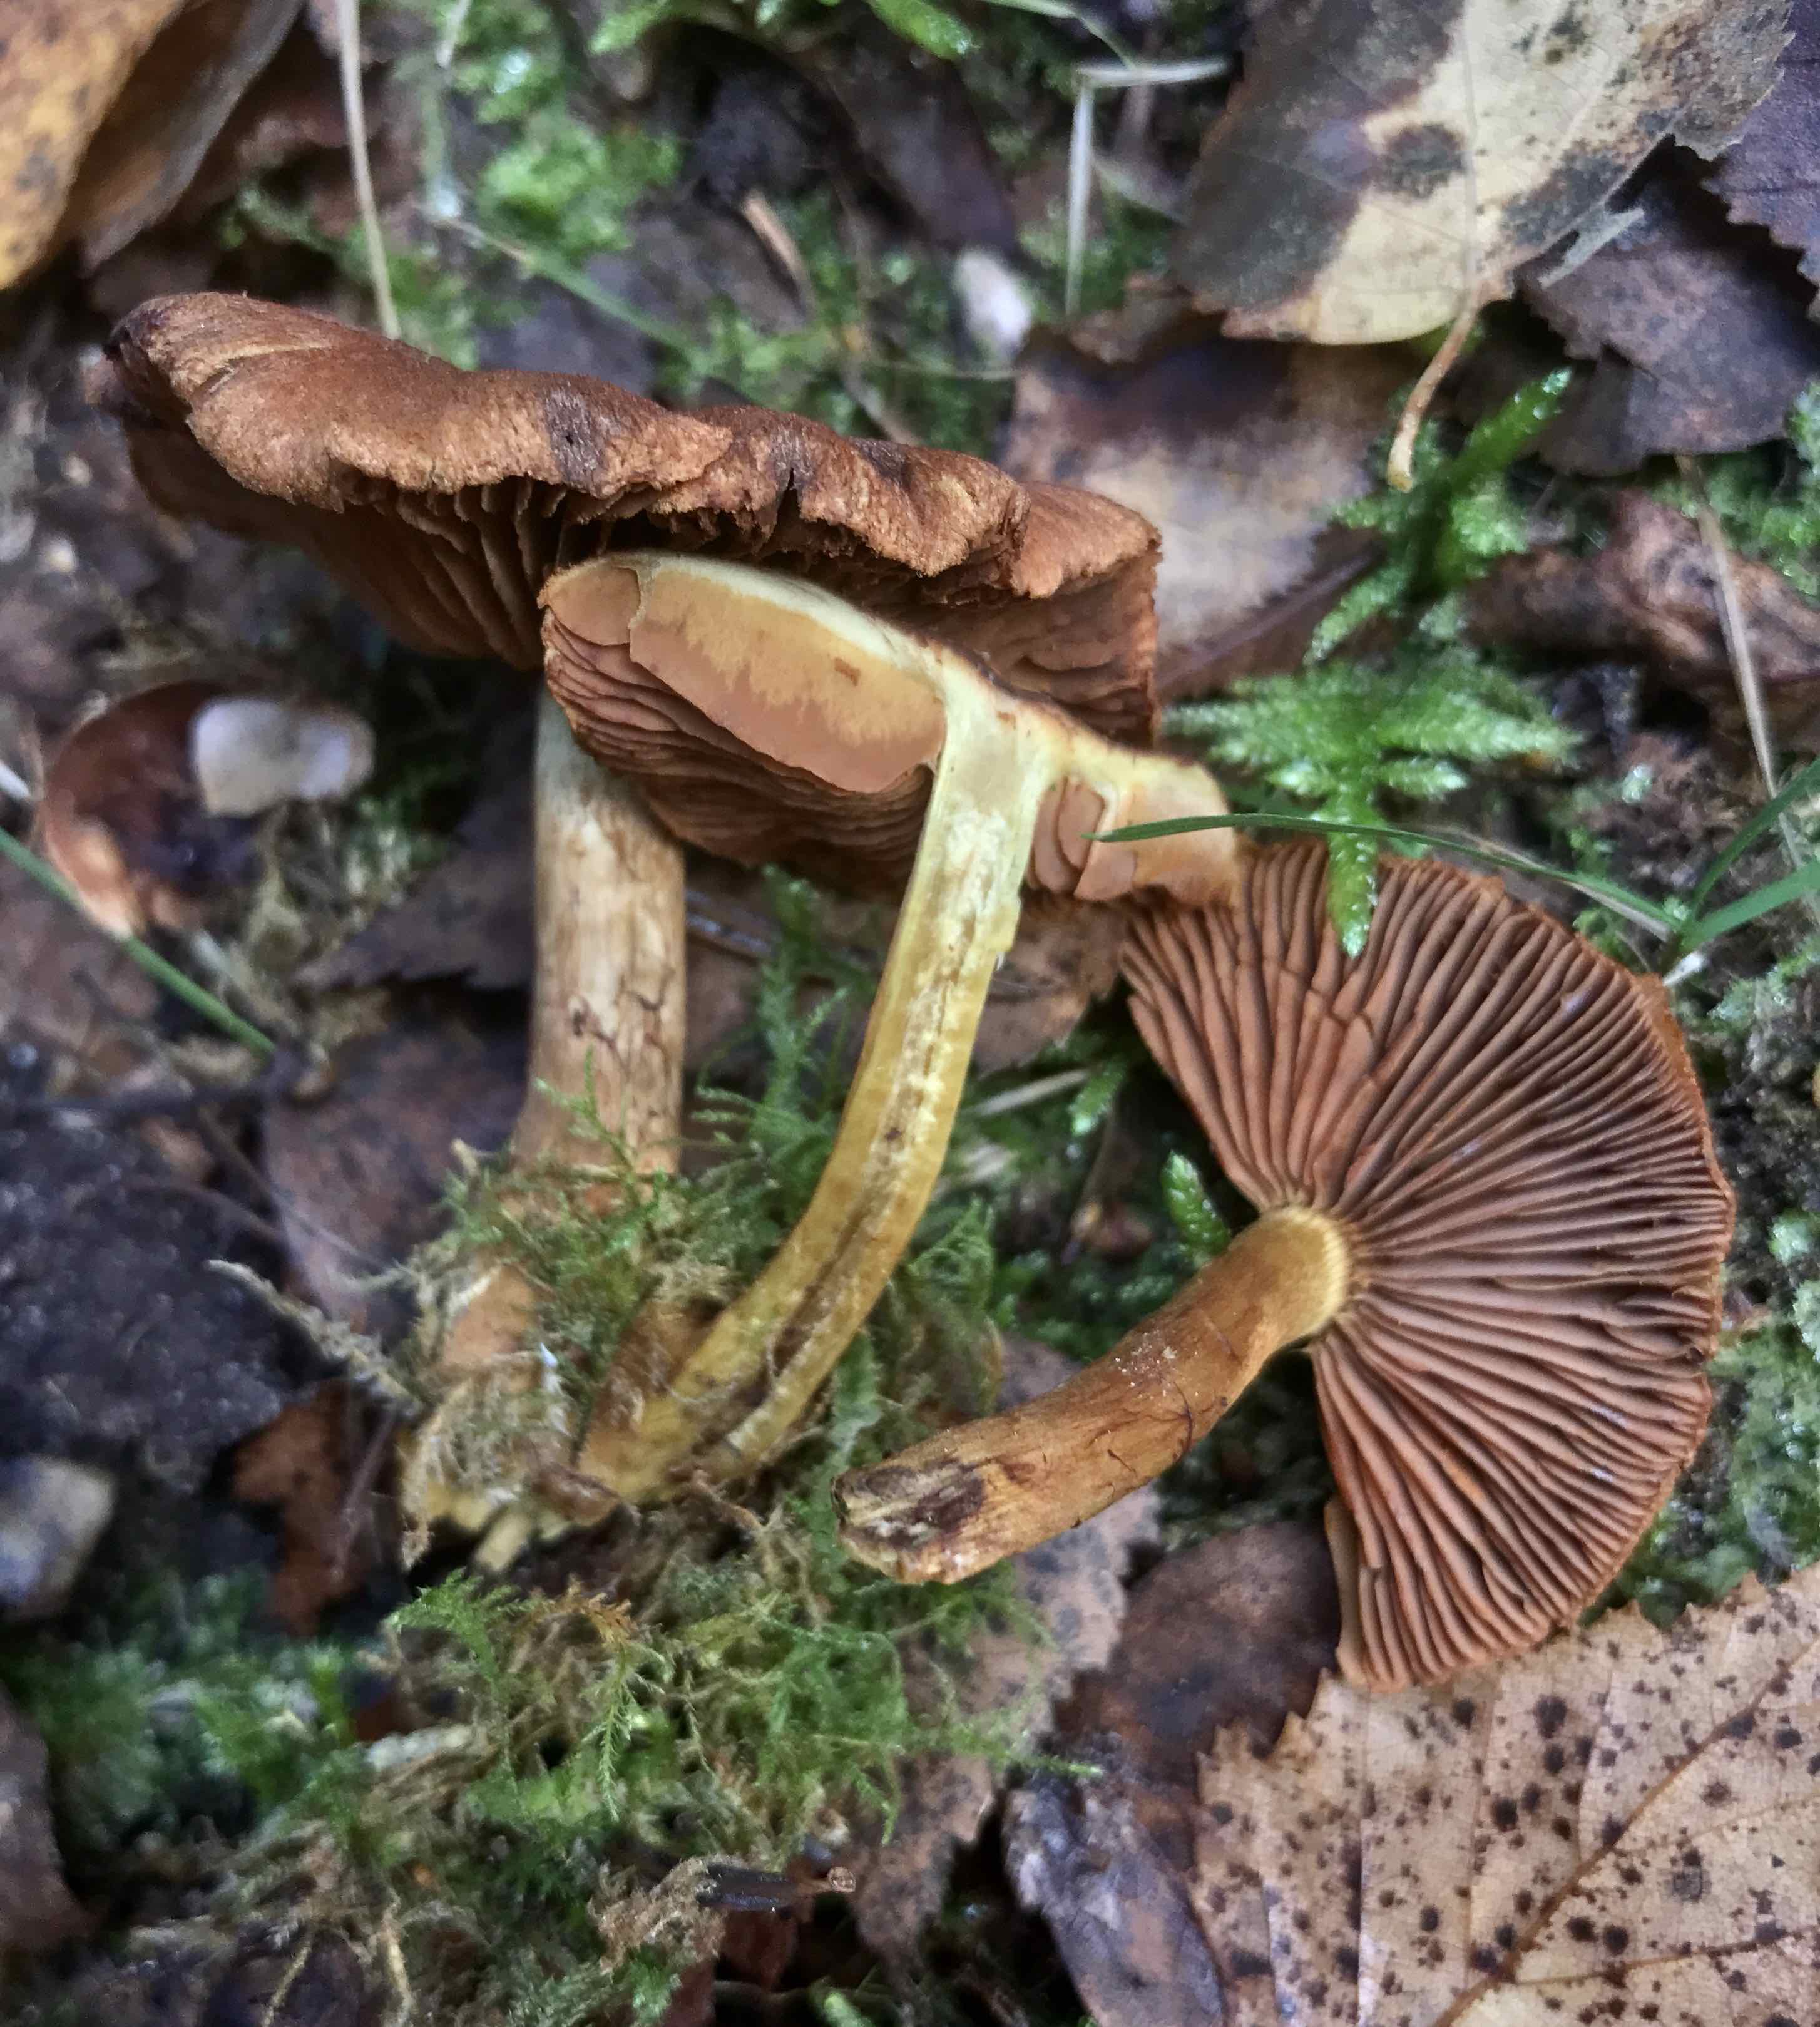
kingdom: Fungi
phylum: Basidiomycota
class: Agaricomycetes
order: Agaricales
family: Cortinariaceae
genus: Cortinarius
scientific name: Cortinarius
